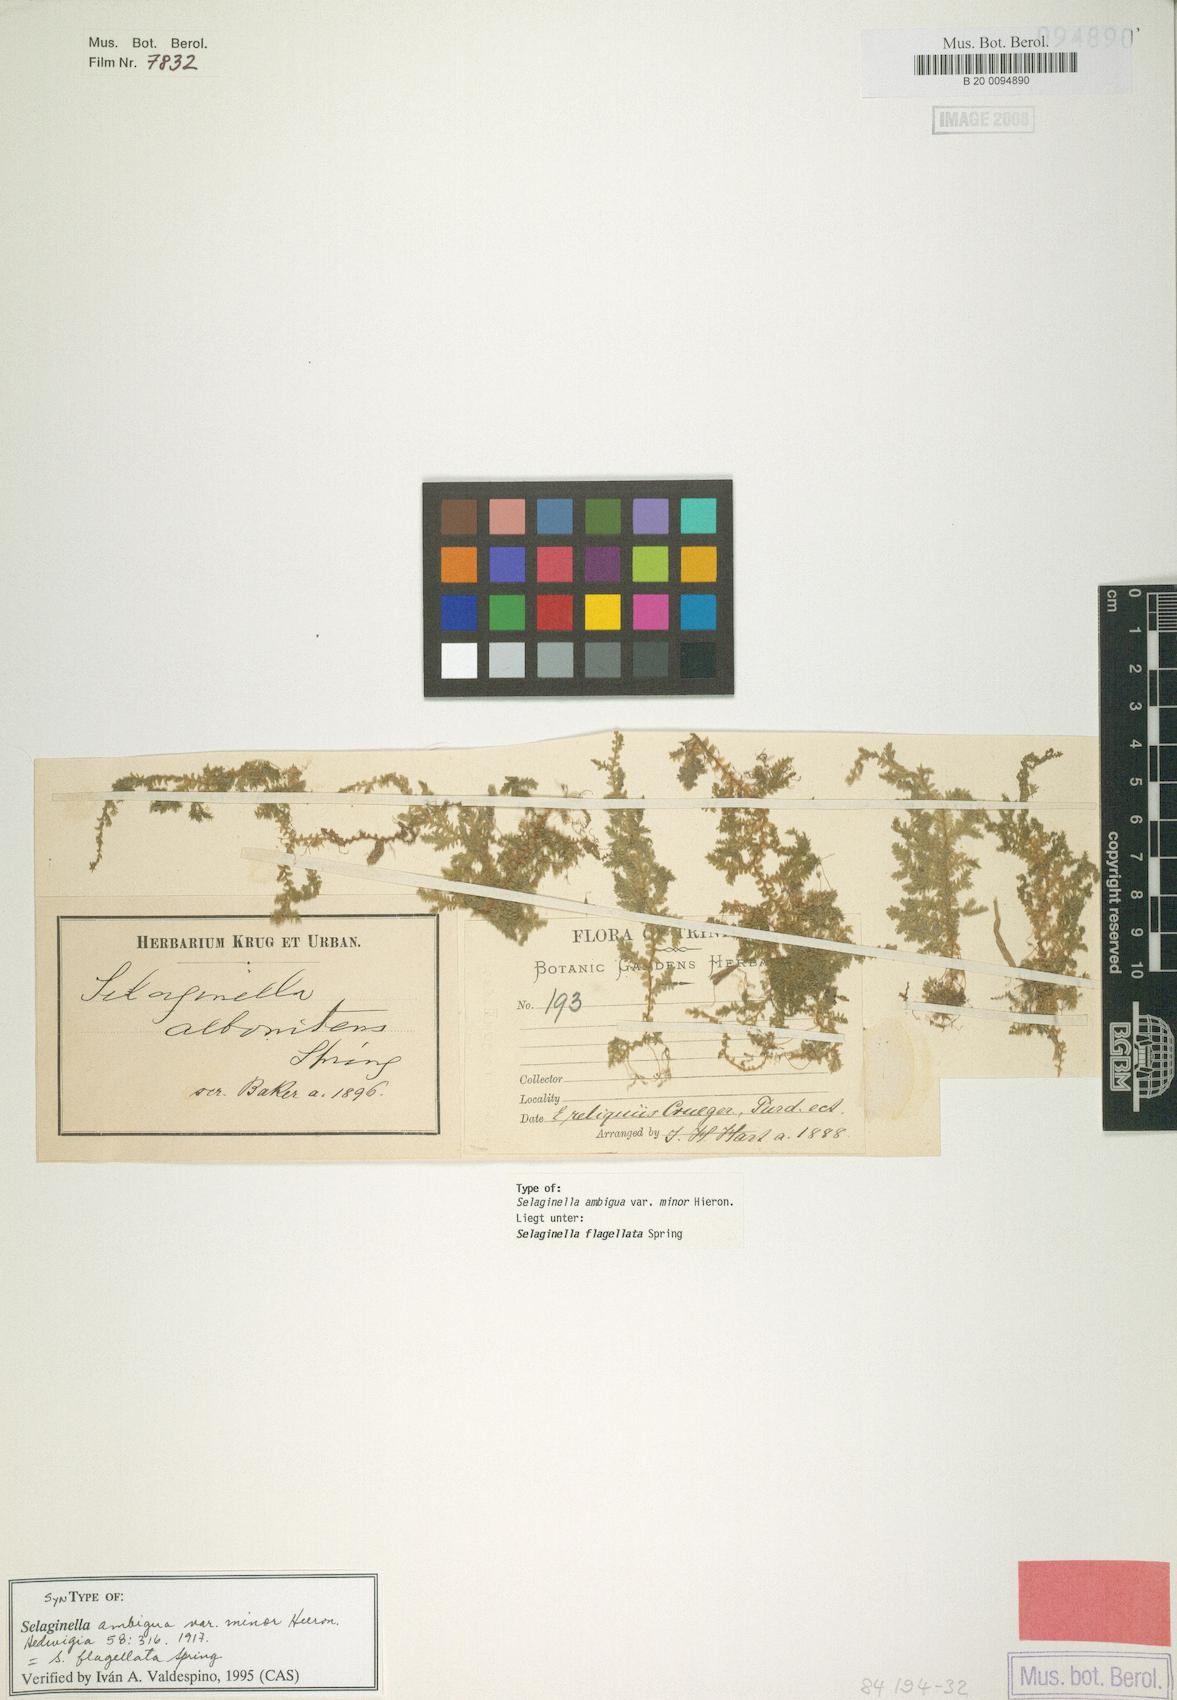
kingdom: Plantae
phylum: Tracheophyta
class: Lycopodiopsida
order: Selaginellales
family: Selaginellaceae
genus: Selaginella
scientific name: Selaginella flagellata
